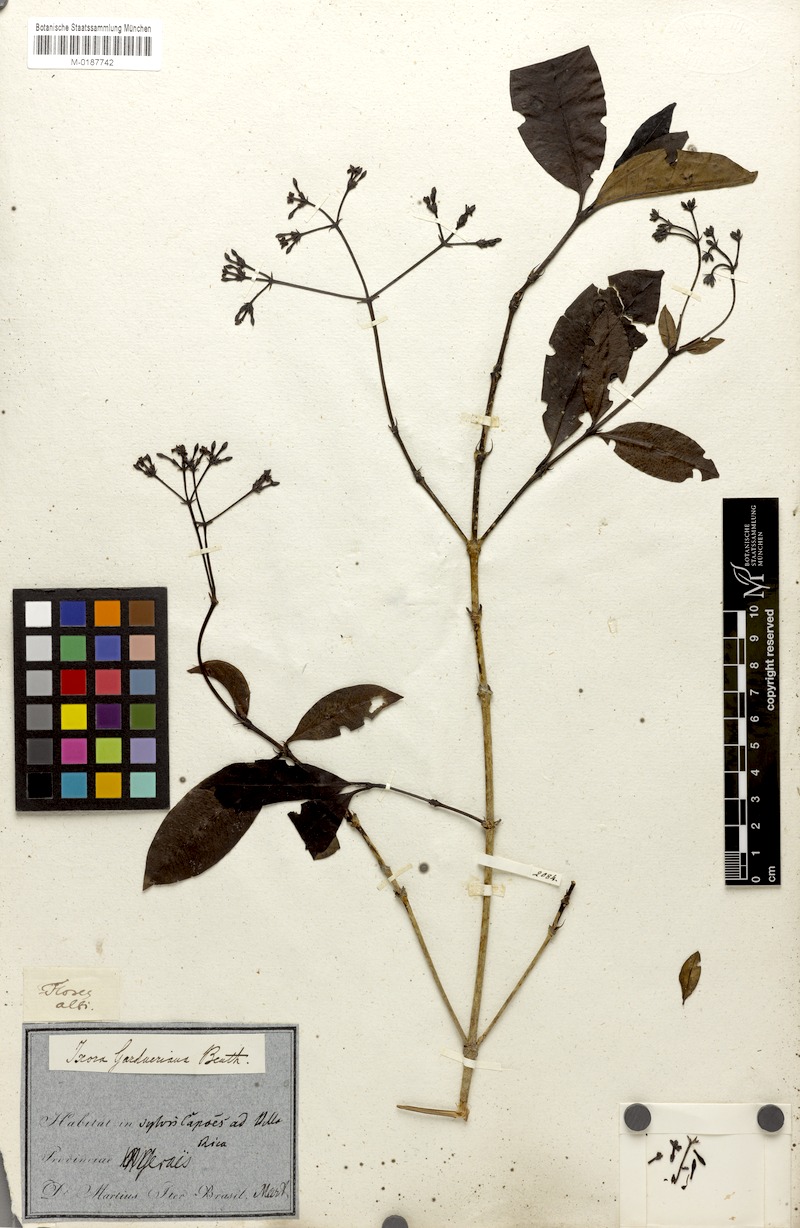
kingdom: Plantae
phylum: Tracheophyta
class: Magnoliopsida
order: Gentianales
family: Rubiaceae
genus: Ixora
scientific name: Ixora gardneriana
